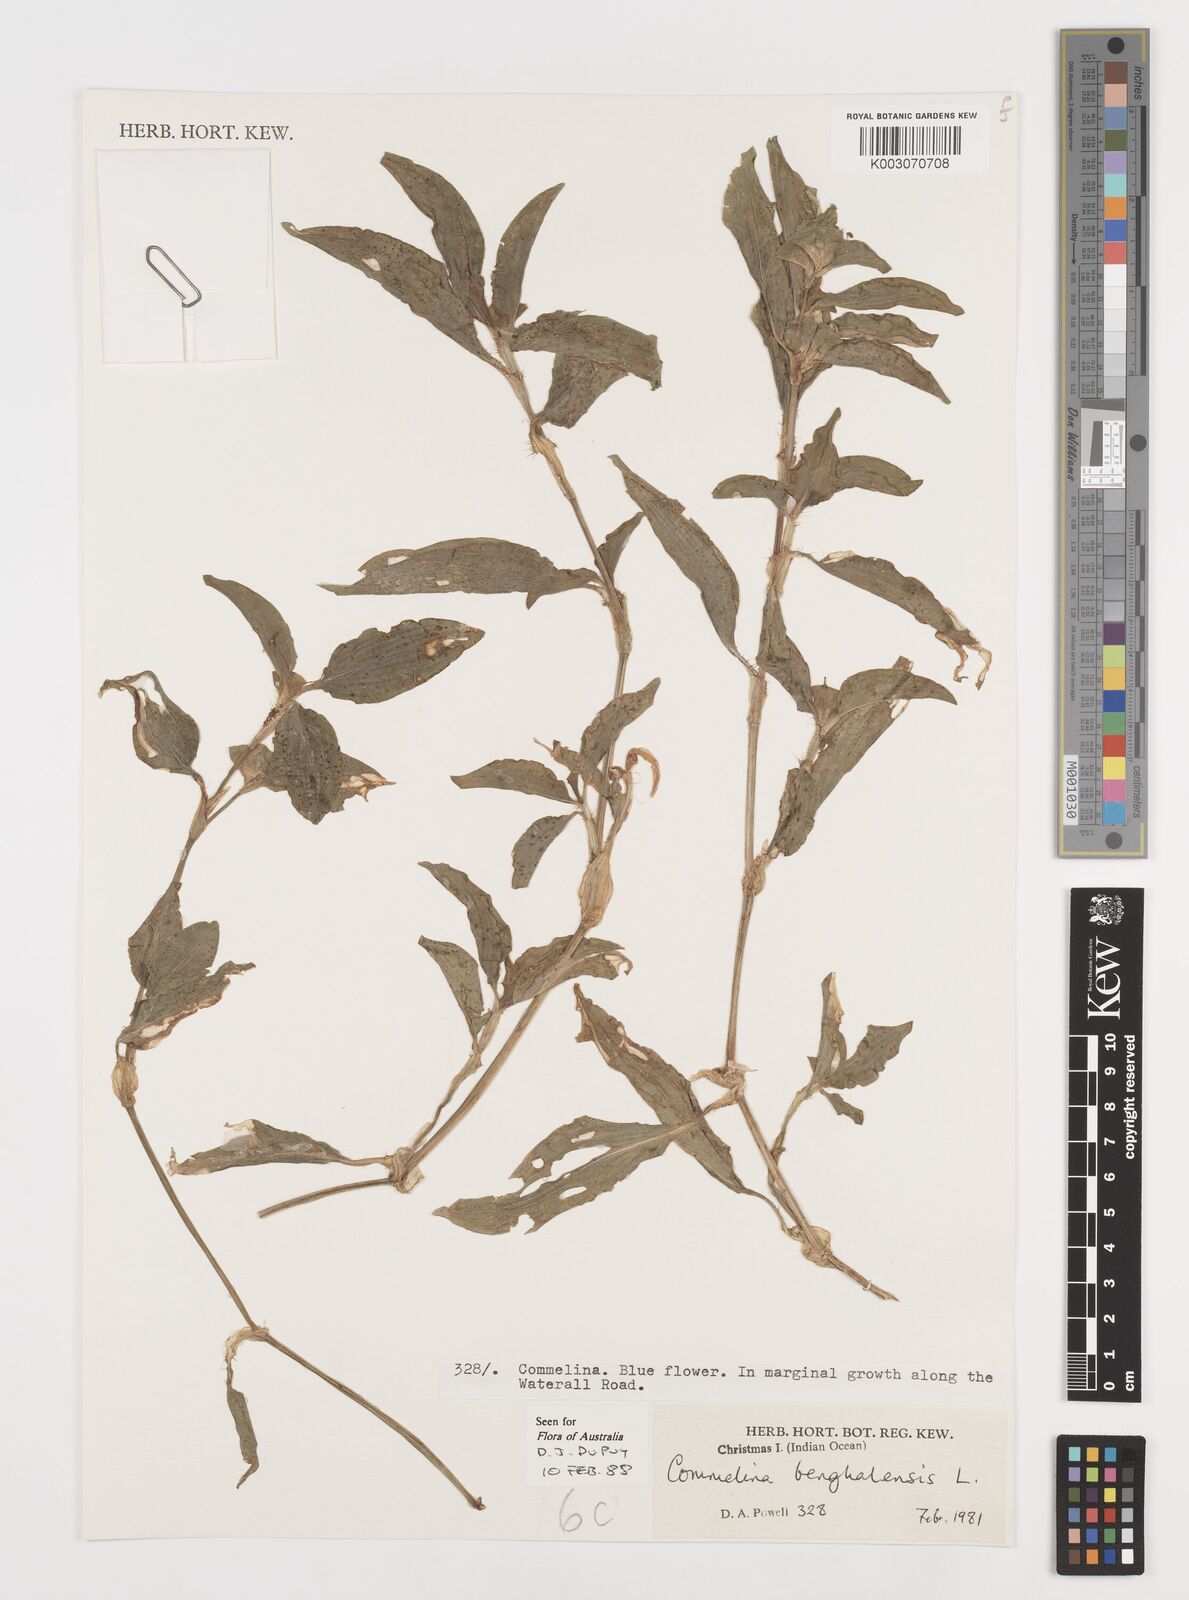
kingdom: Plantae
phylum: Tracheophyta
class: Liliopsida
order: Commelinales
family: Commelinaceae
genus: Commelina
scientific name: Commelina benghalensis
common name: Jio
